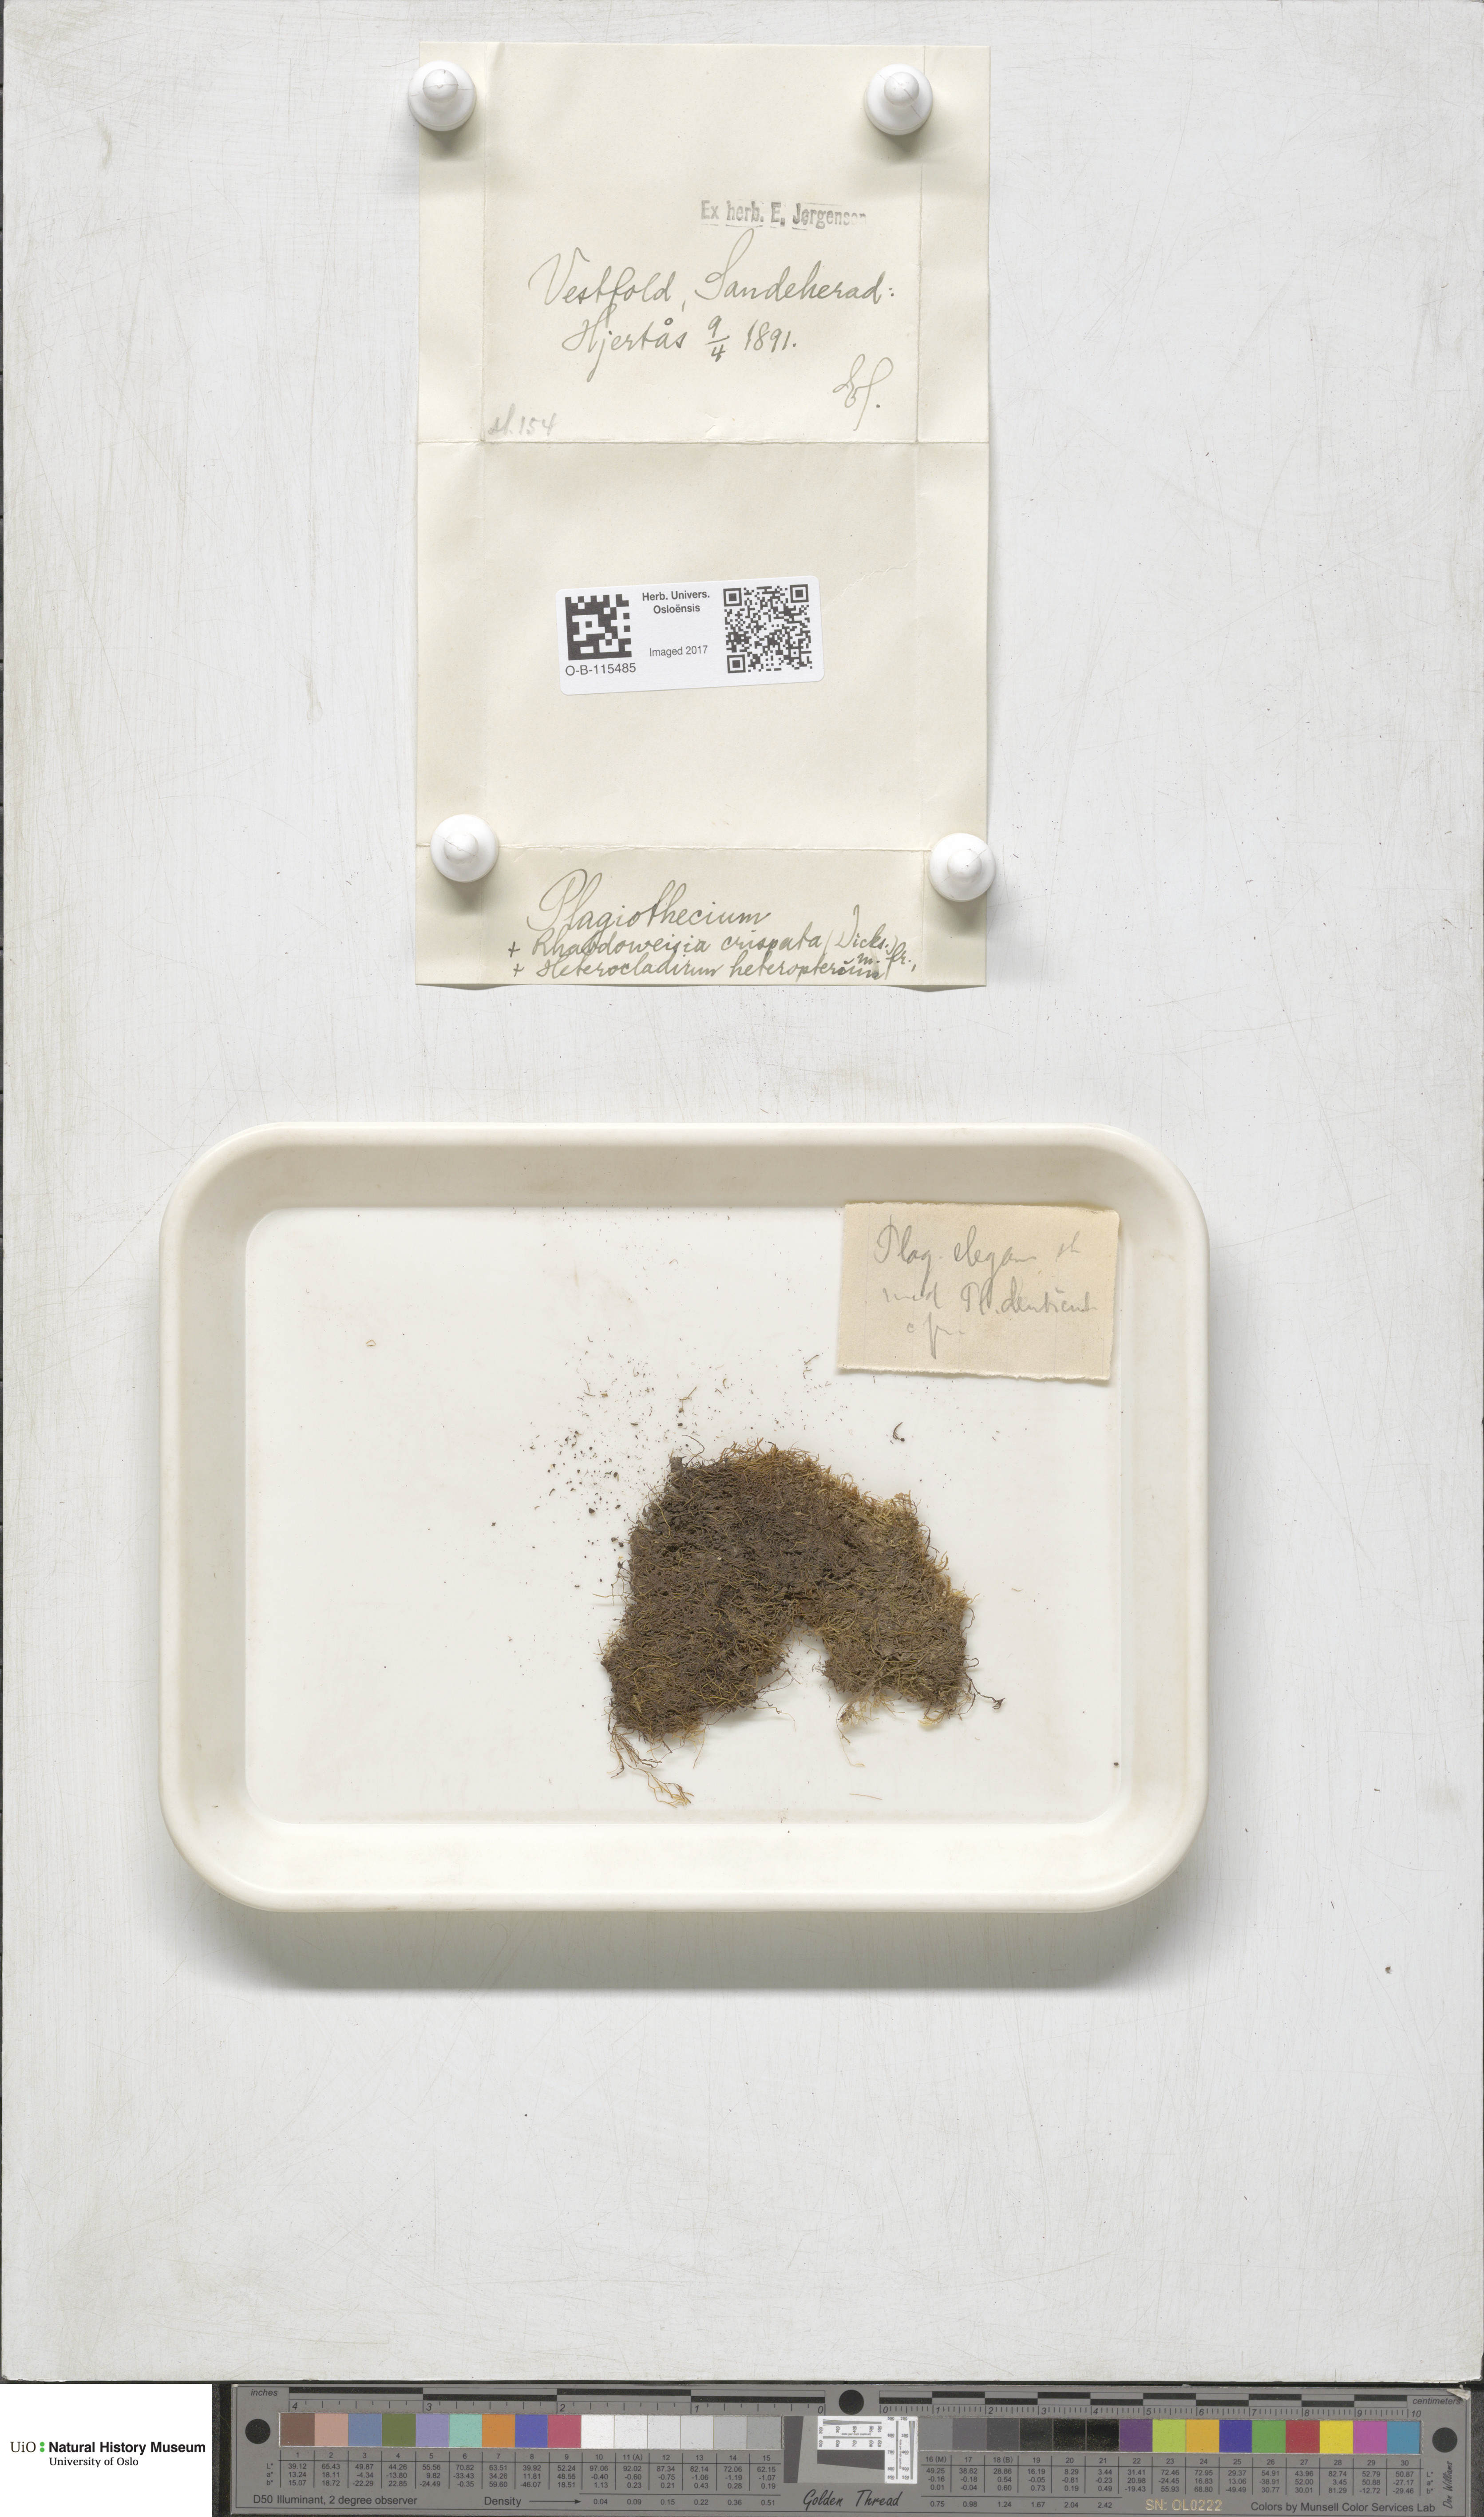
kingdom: Plantae
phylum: Bryophyta
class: Bryopsida
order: Hypnales
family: Lembophyllaceae
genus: Heterocladium
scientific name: Heterocladium heteropterum
